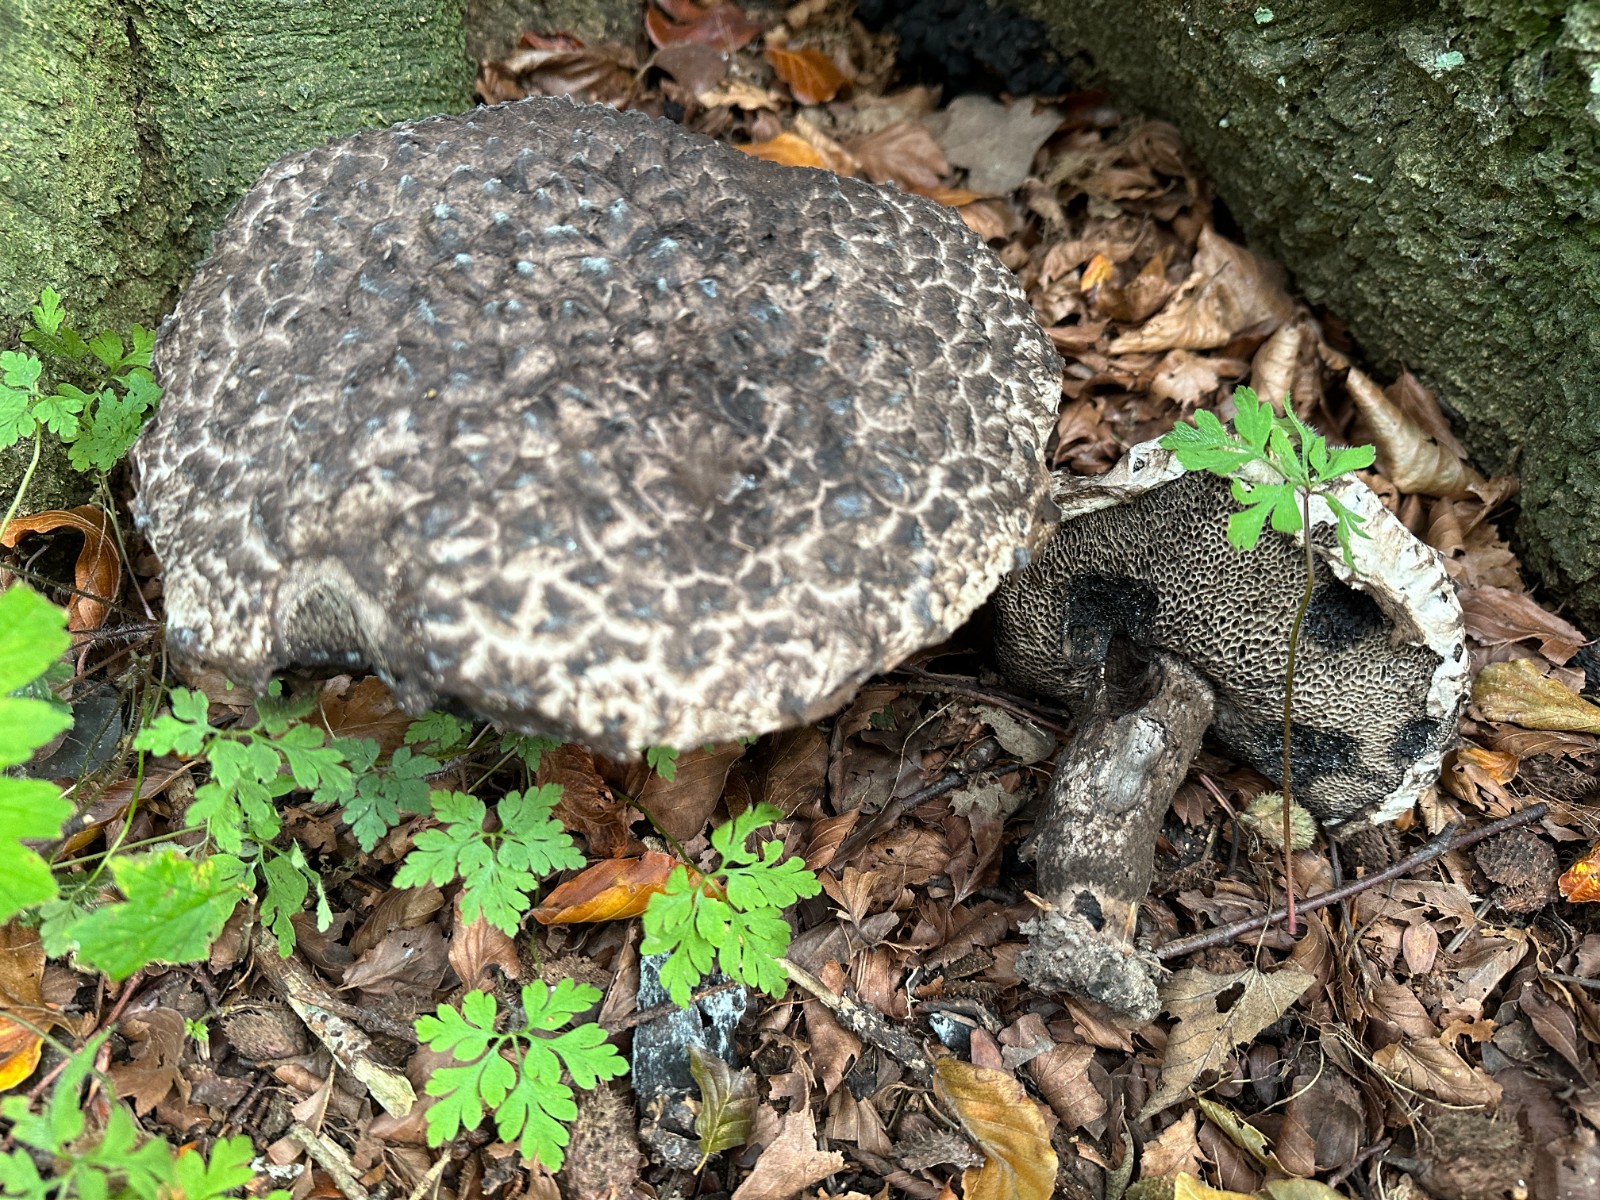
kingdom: Fungi
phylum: Basidiomycota
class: Agaricomycetes
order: Boletales
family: Boletaceae
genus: Strobilomyces
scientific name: Strobilomyces strobilaceus
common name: koglerørhat
